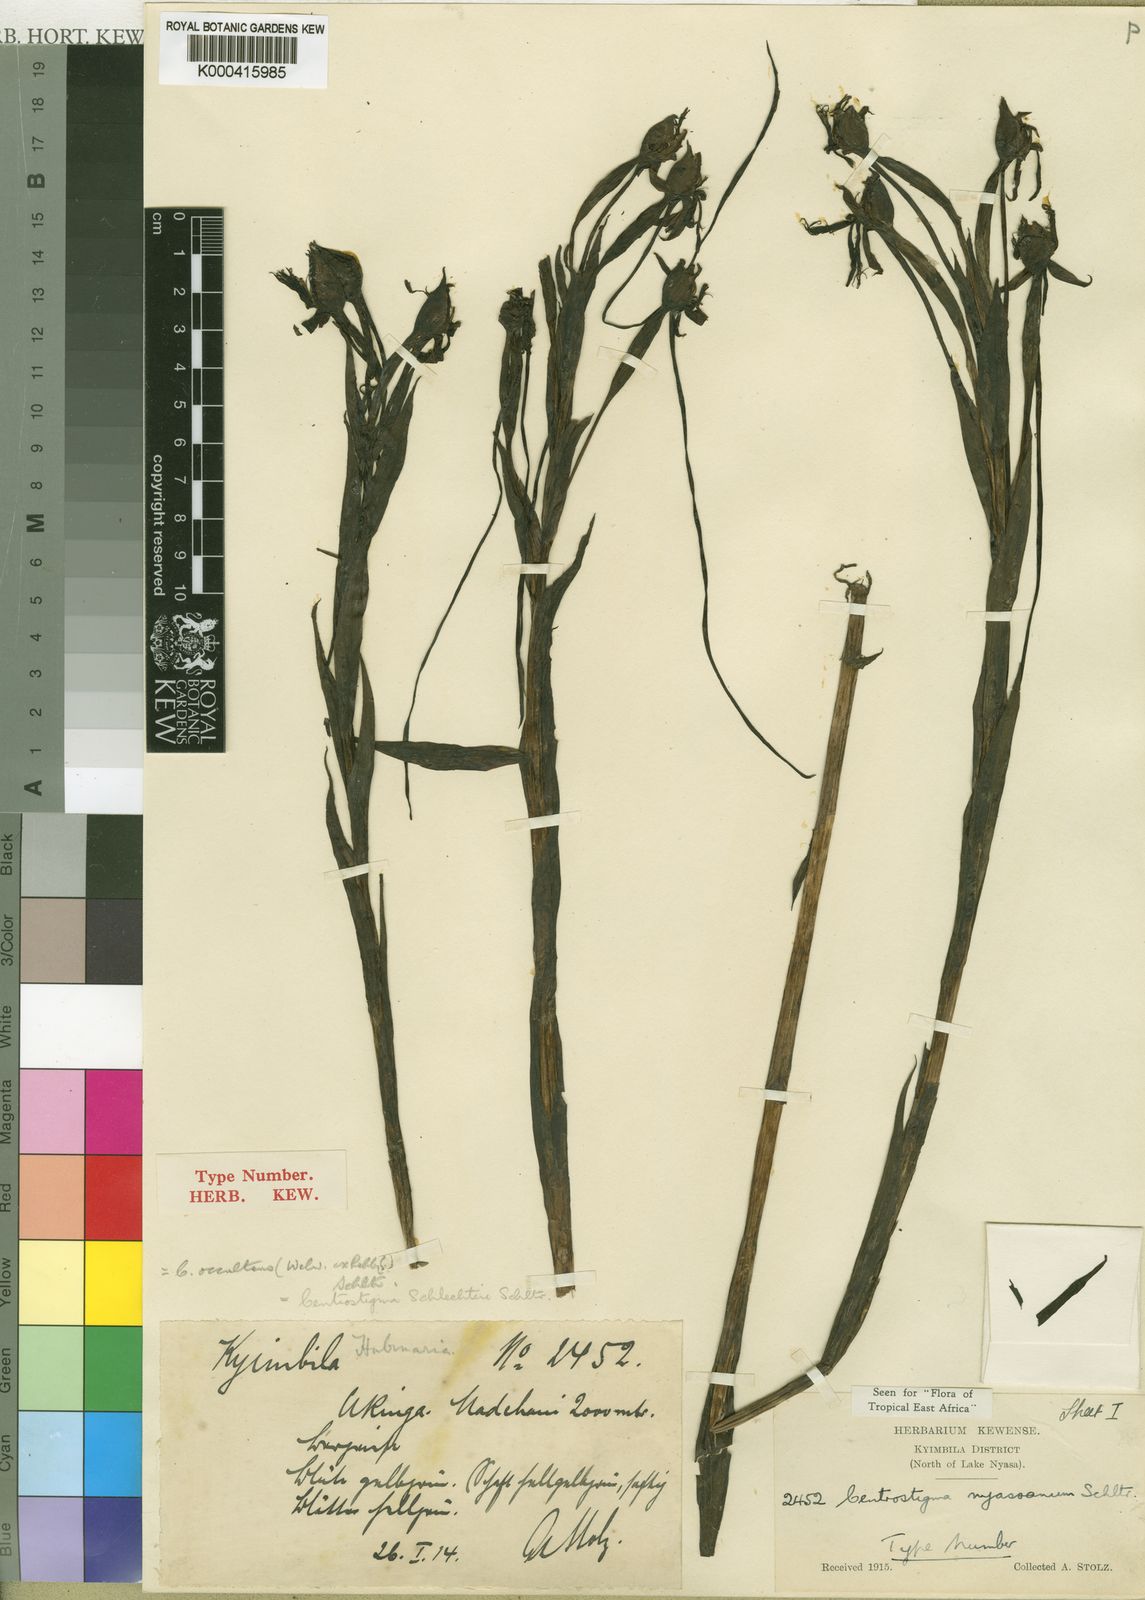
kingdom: Plantae
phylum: Tracheophyta
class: Liliopsida
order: Asparagales
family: Orchidaceae
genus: Centrostigma
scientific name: Centrostigma occultans
